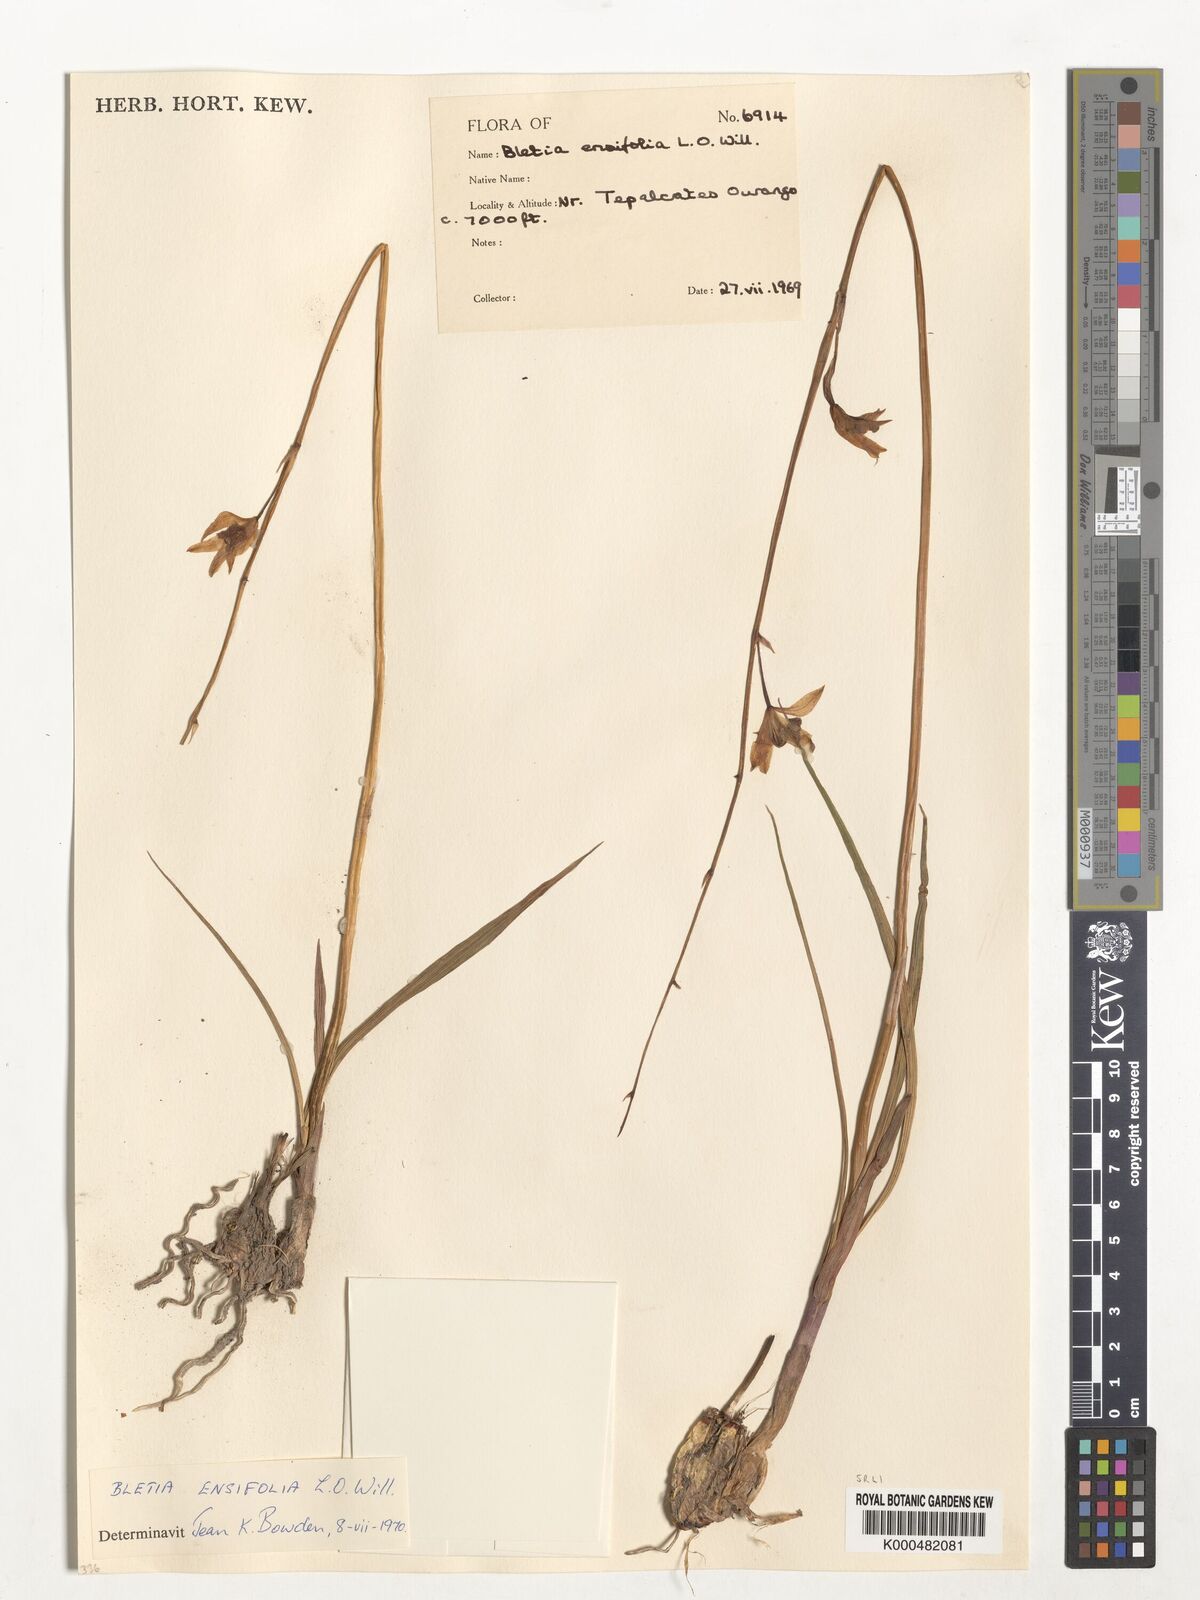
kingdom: Plantae
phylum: Tracheophyta
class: Liliopsida
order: Asparagales
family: Orchidaceae
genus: Bletia
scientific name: Bletia ensifolia
